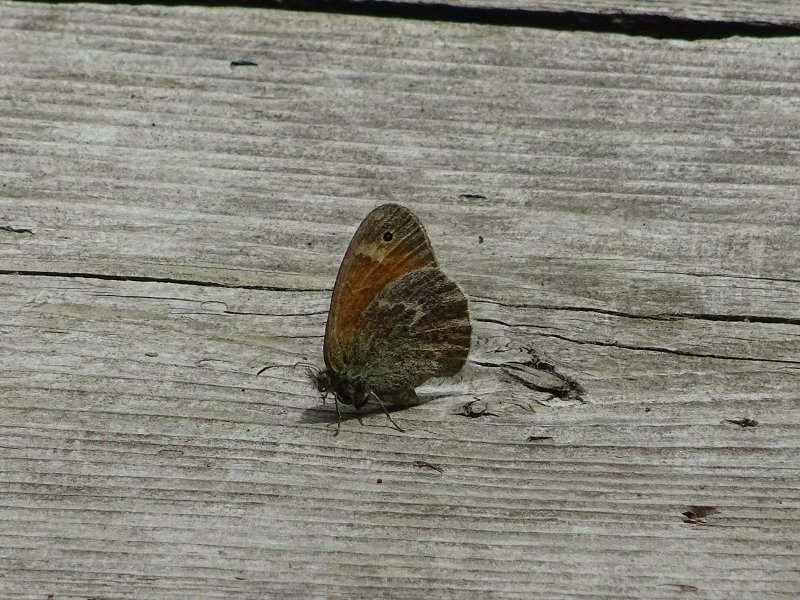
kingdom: Animalia
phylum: Arthropoda
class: Insecta
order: Lepidoptera
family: Nymphalidae
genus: Coenonympha
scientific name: Coenonympha tullia
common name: Large Heath
